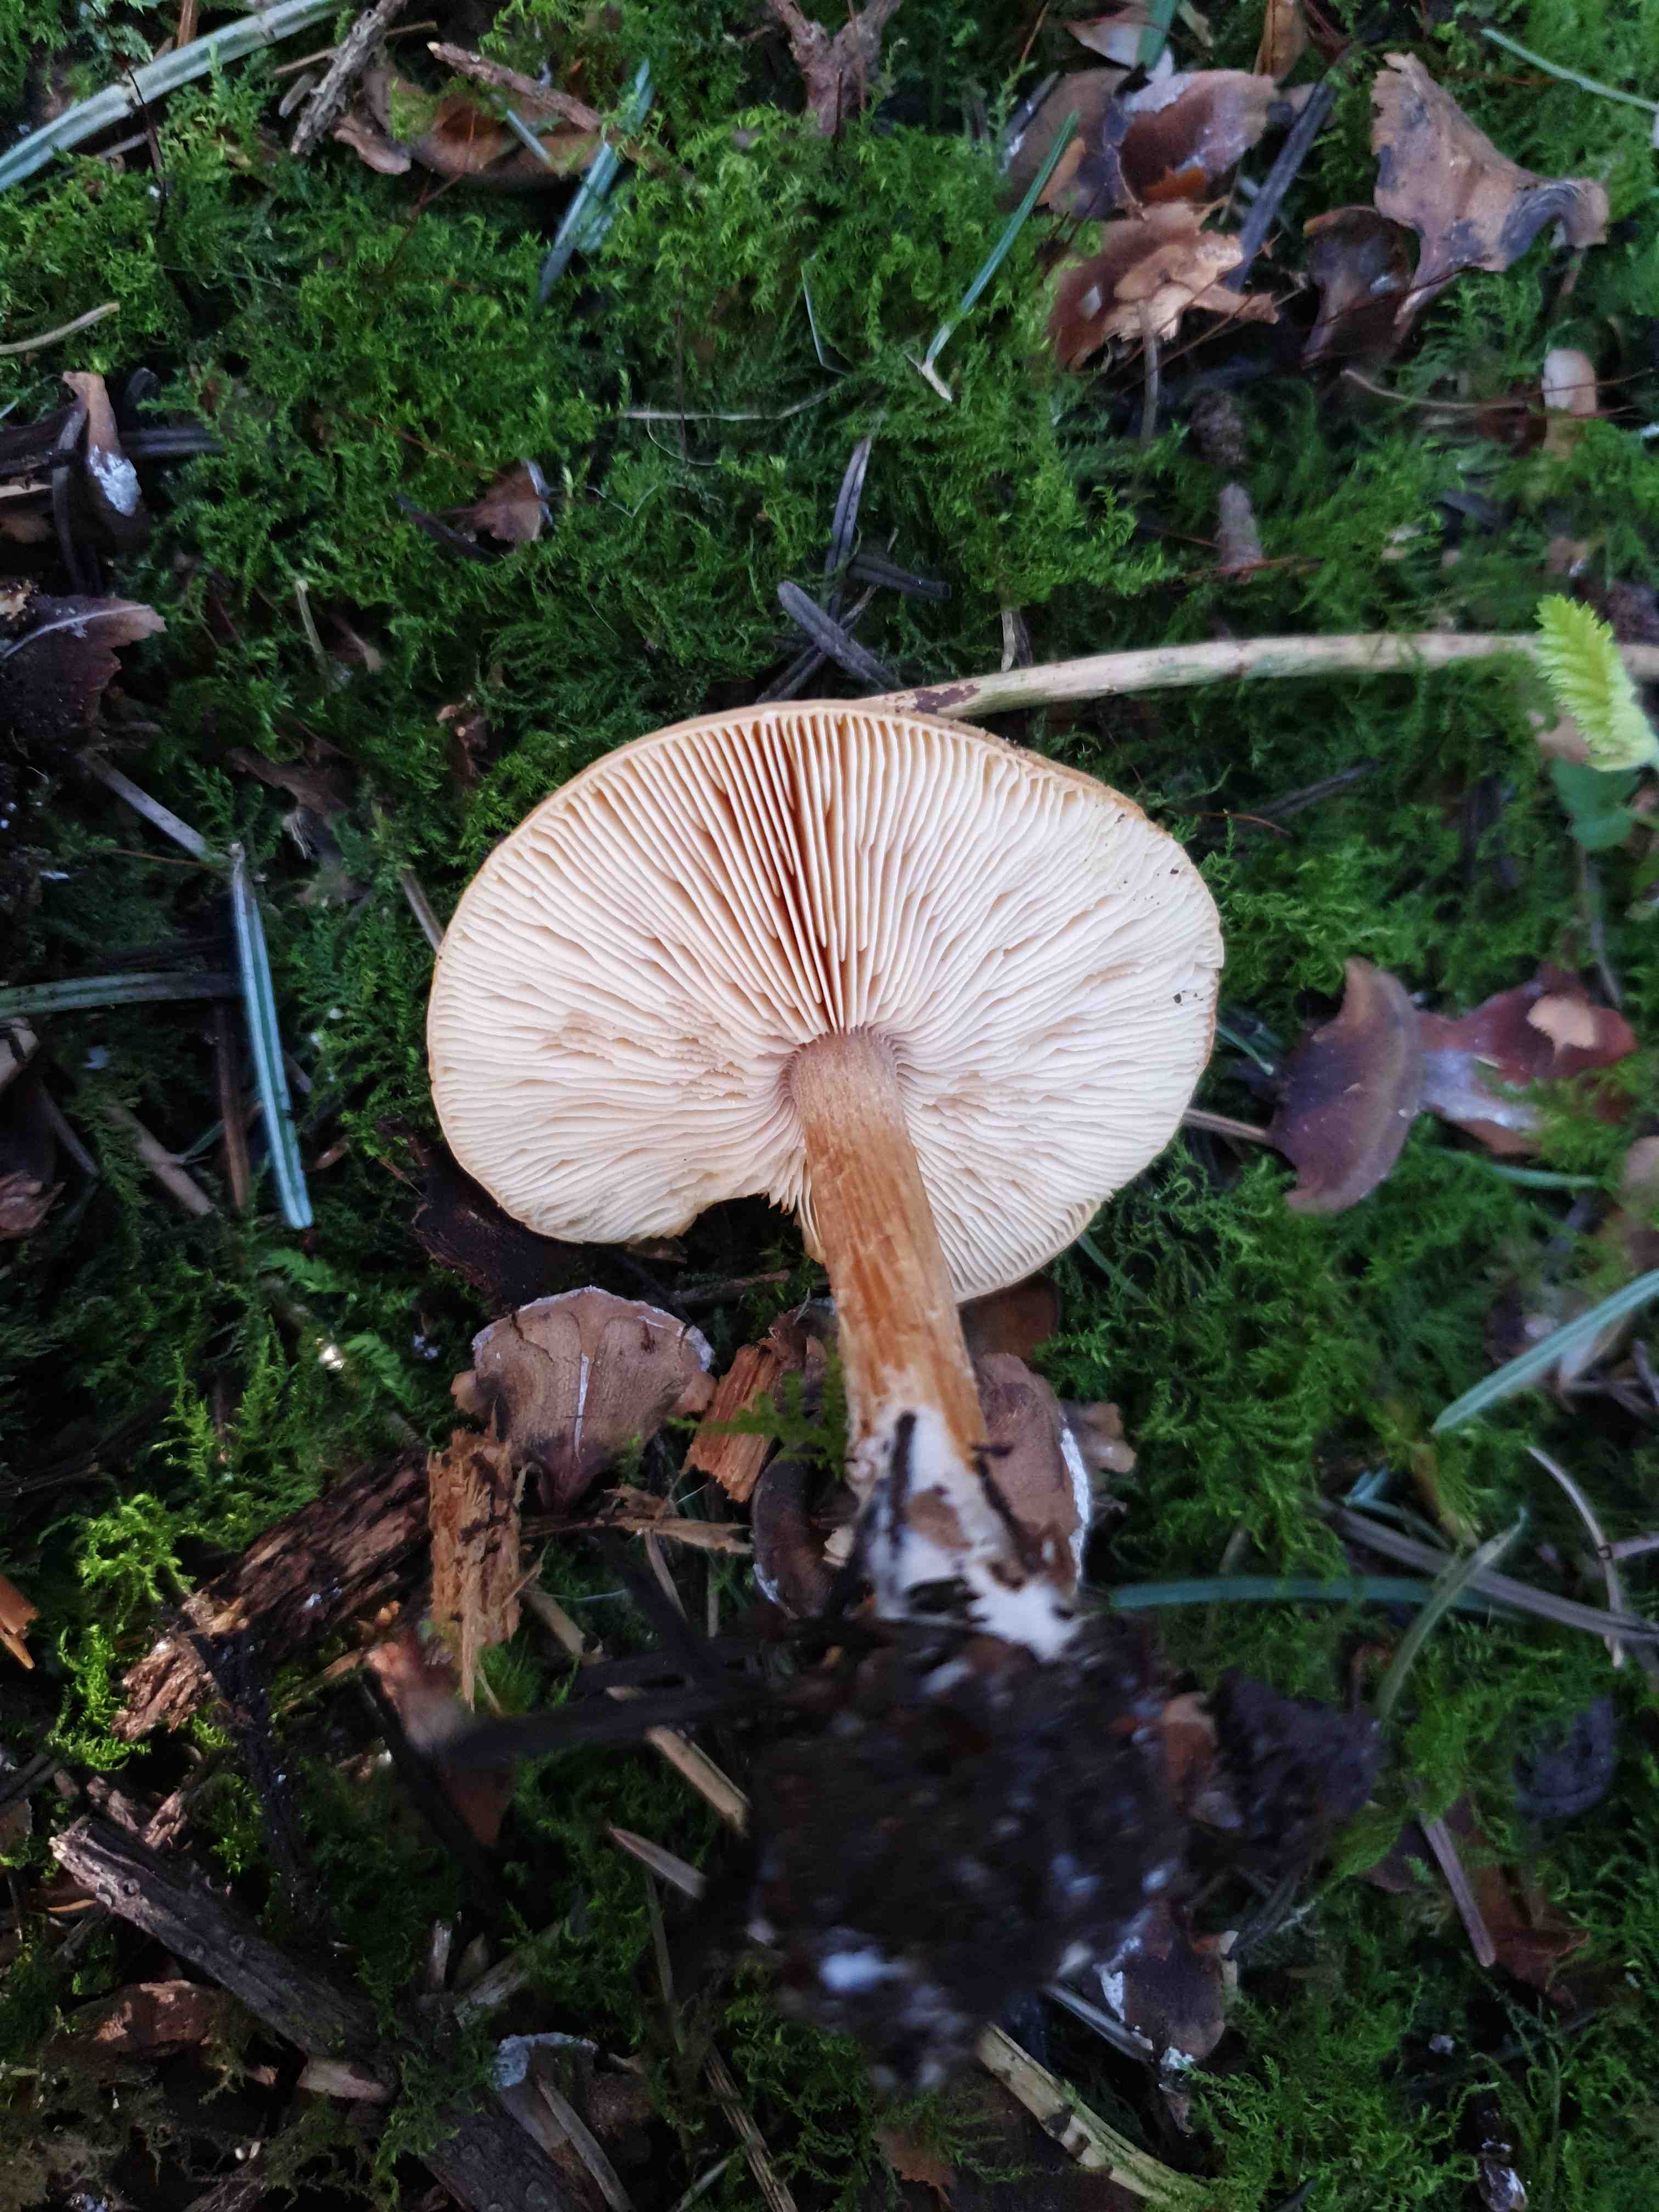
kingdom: Fungi
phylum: Basidiomycota
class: Agaricomycetes
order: Agaricales
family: Tricholomataceae
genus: Melanoleuca
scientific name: Melanoleuca cognata
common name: gyldengrå munkehat
